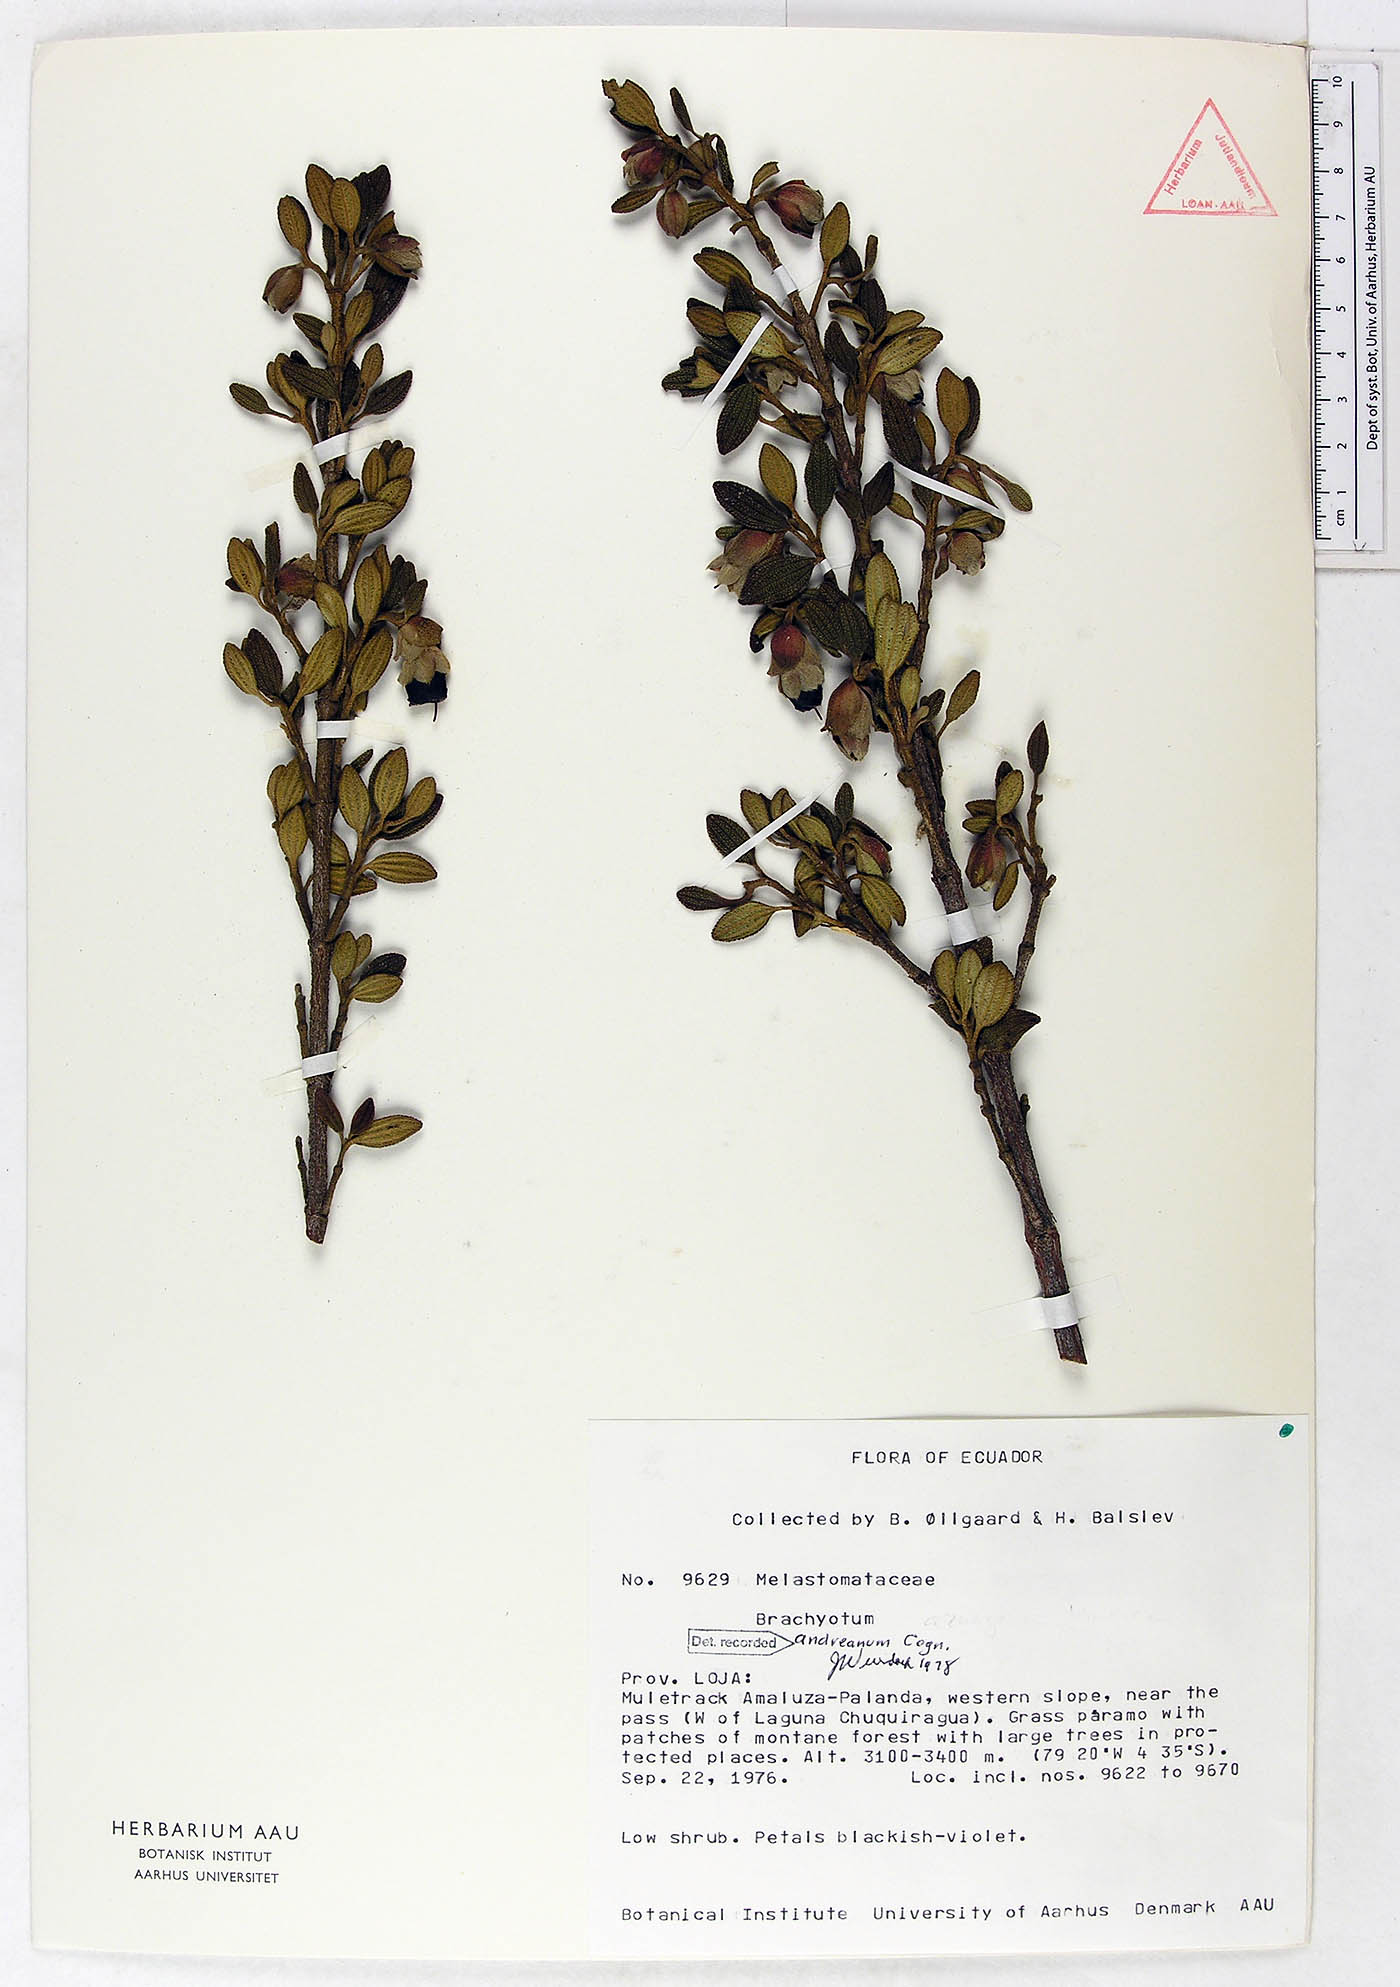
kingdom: Plantae
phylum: Tracheophyta
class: Magnoliopsida
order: Myrtales
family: Melastomataceae
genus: Brachyotum
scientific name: Brachyotum andreanum
